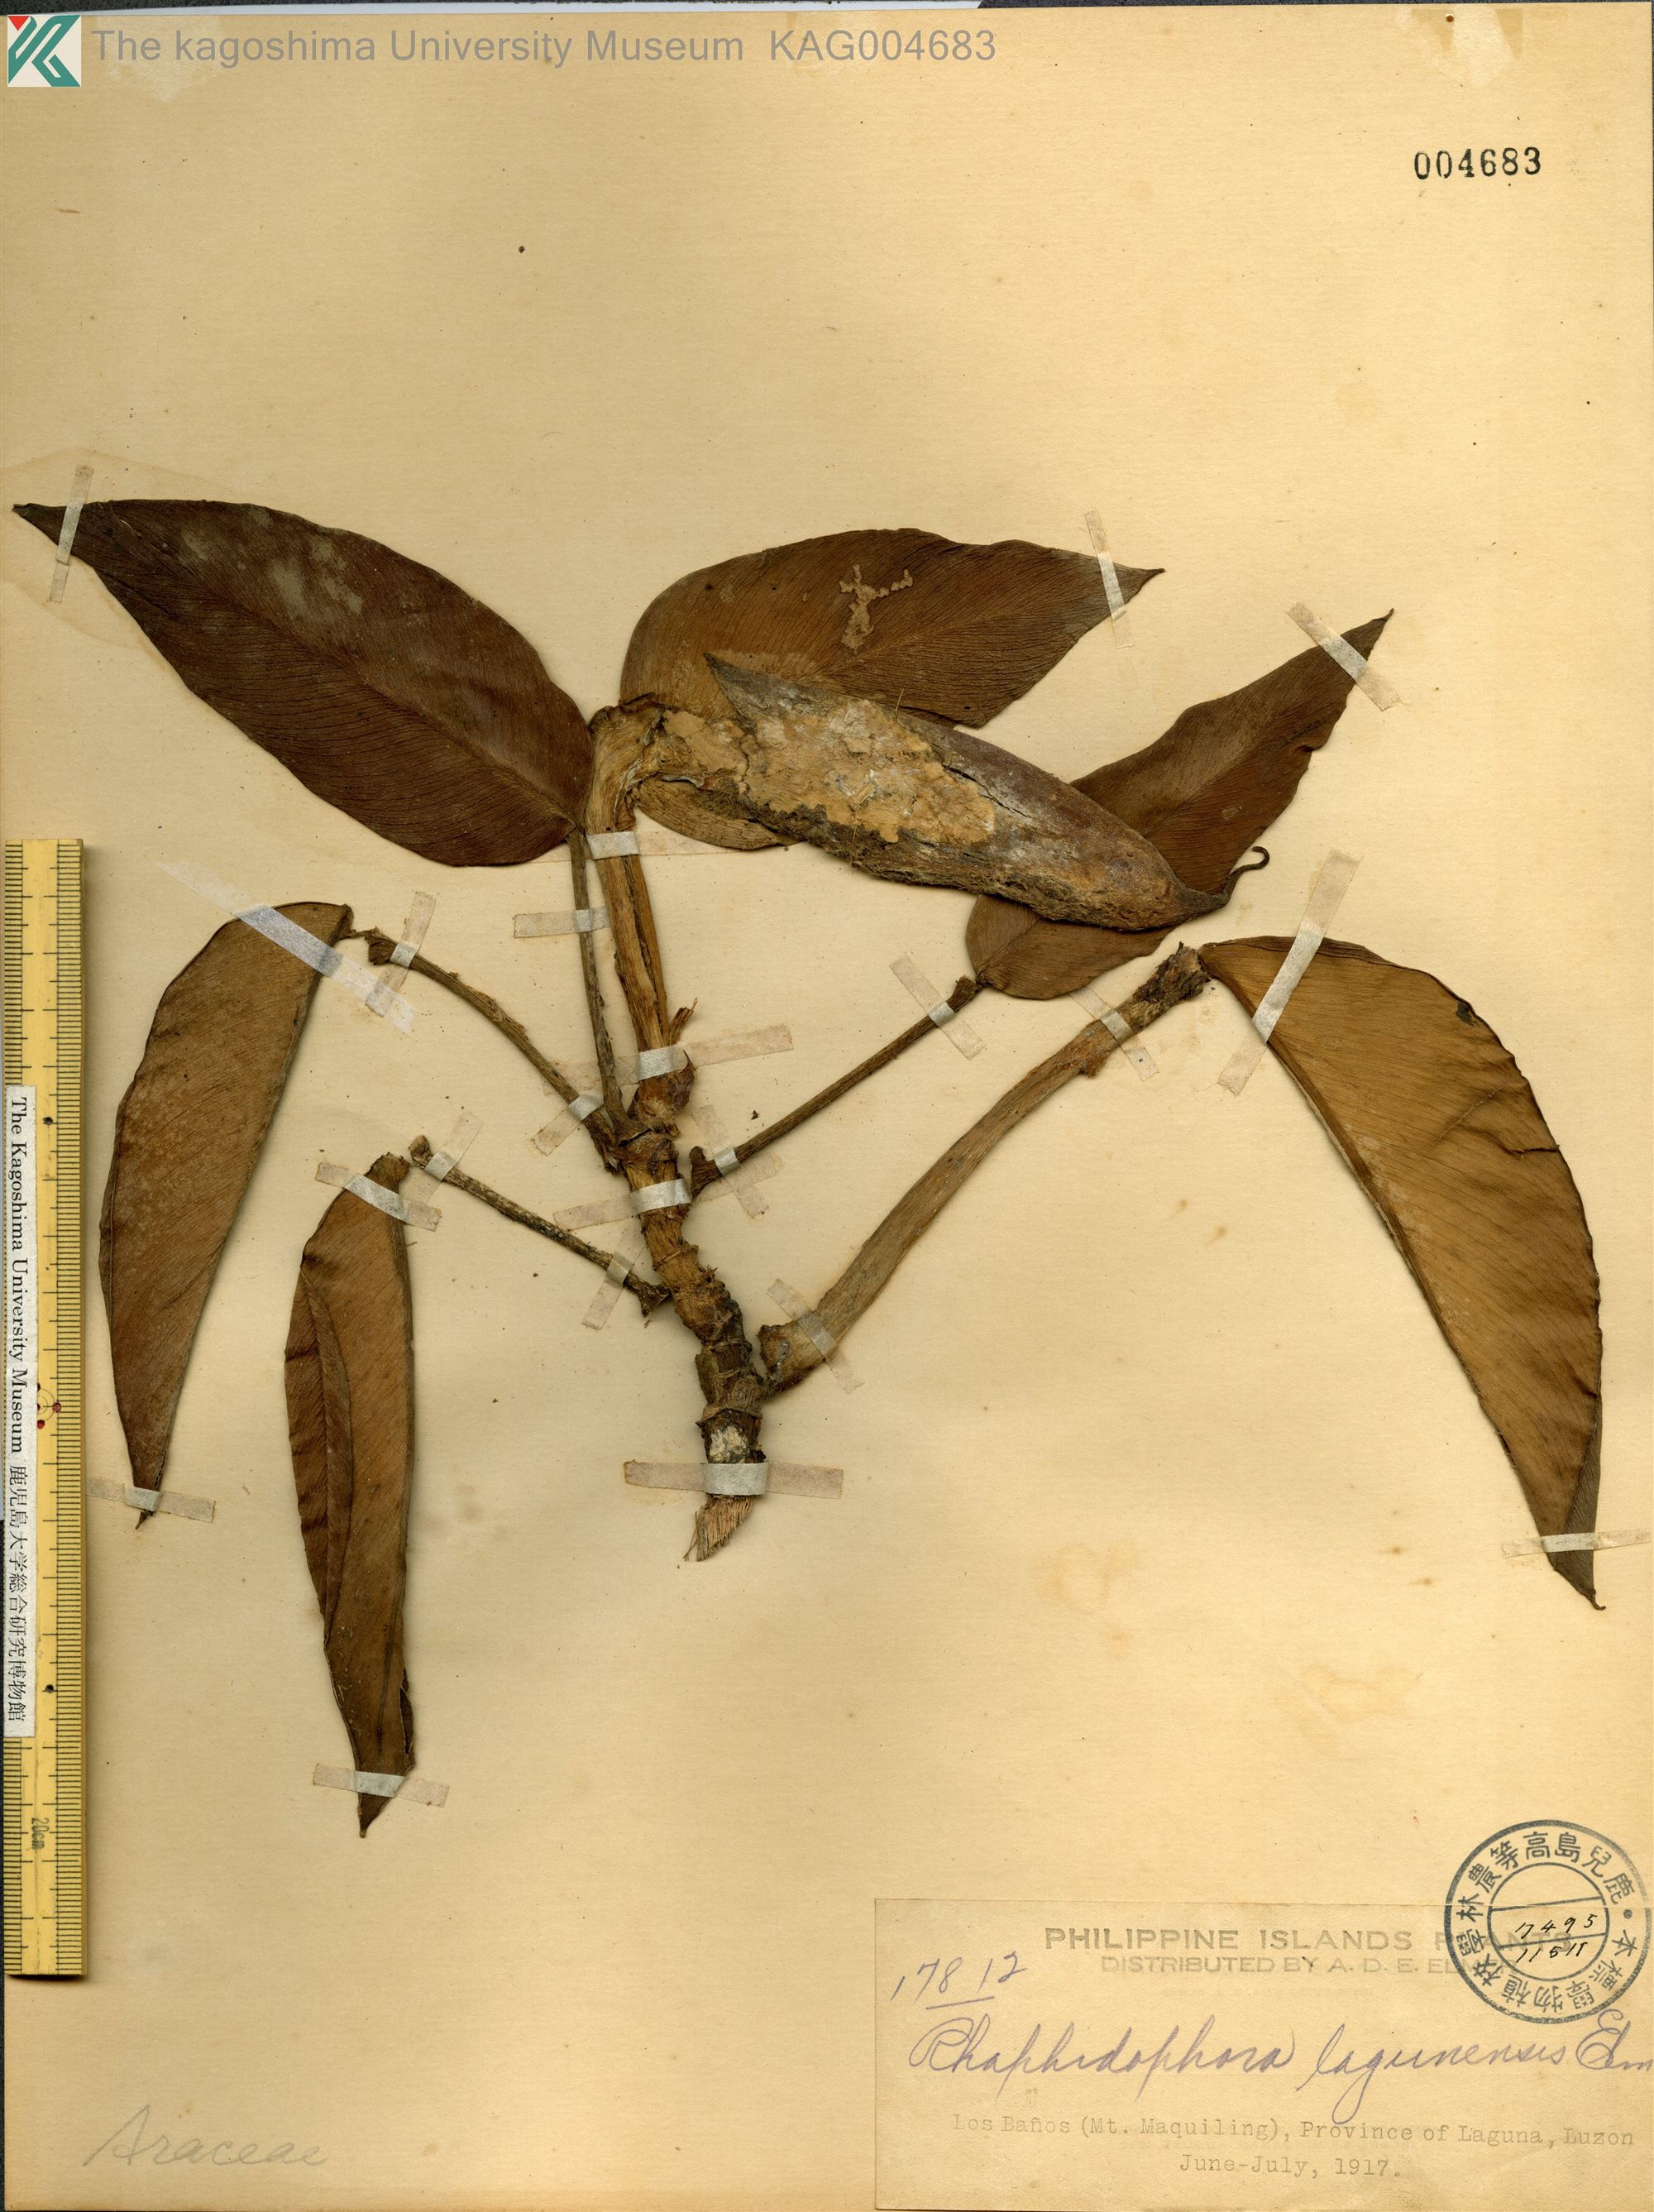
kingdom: Plantae
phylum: Tracheophyta
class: Liliopsida
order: Alismatales
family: Araceae
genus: Rhaphidophora
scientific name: Rhaphidophora acuminata
